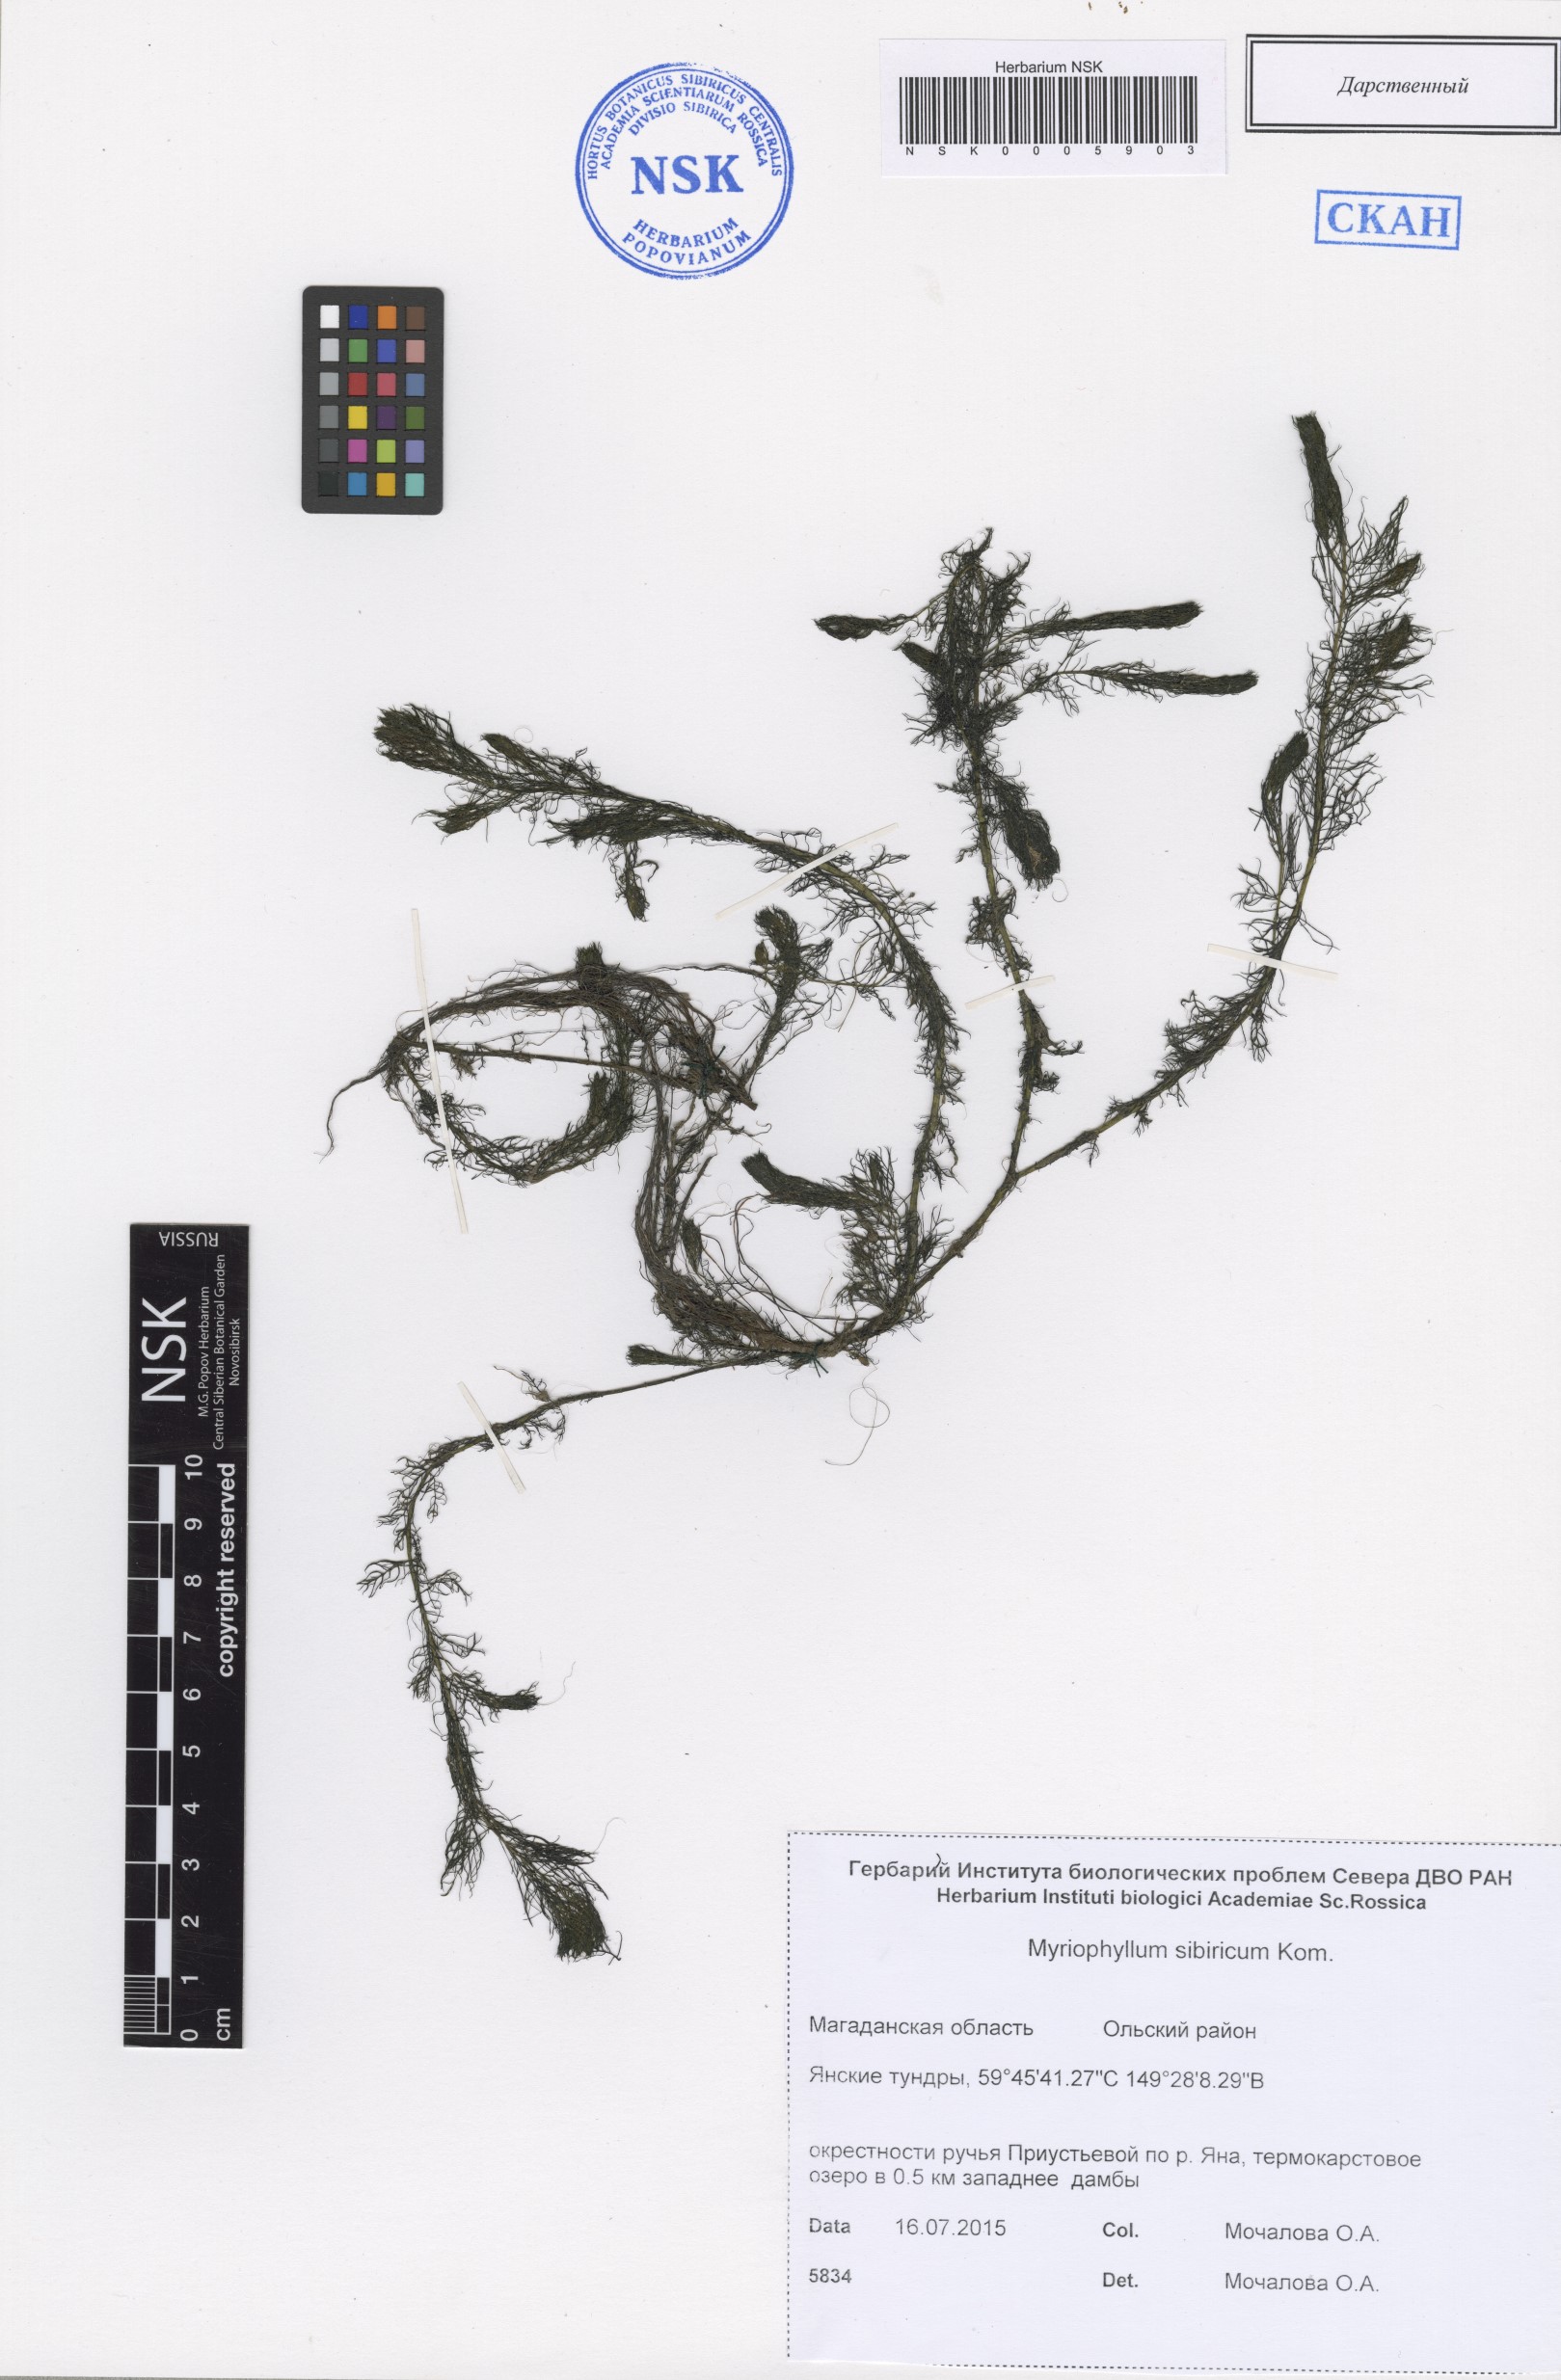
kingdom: Plantae
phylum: Tracheophyta
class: Magnoliopsida
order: Saxifragales
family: Haloragaceae
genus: Myriophyllum
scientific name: Myriophyllum sibiricum
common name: Siberian water-milfoil
